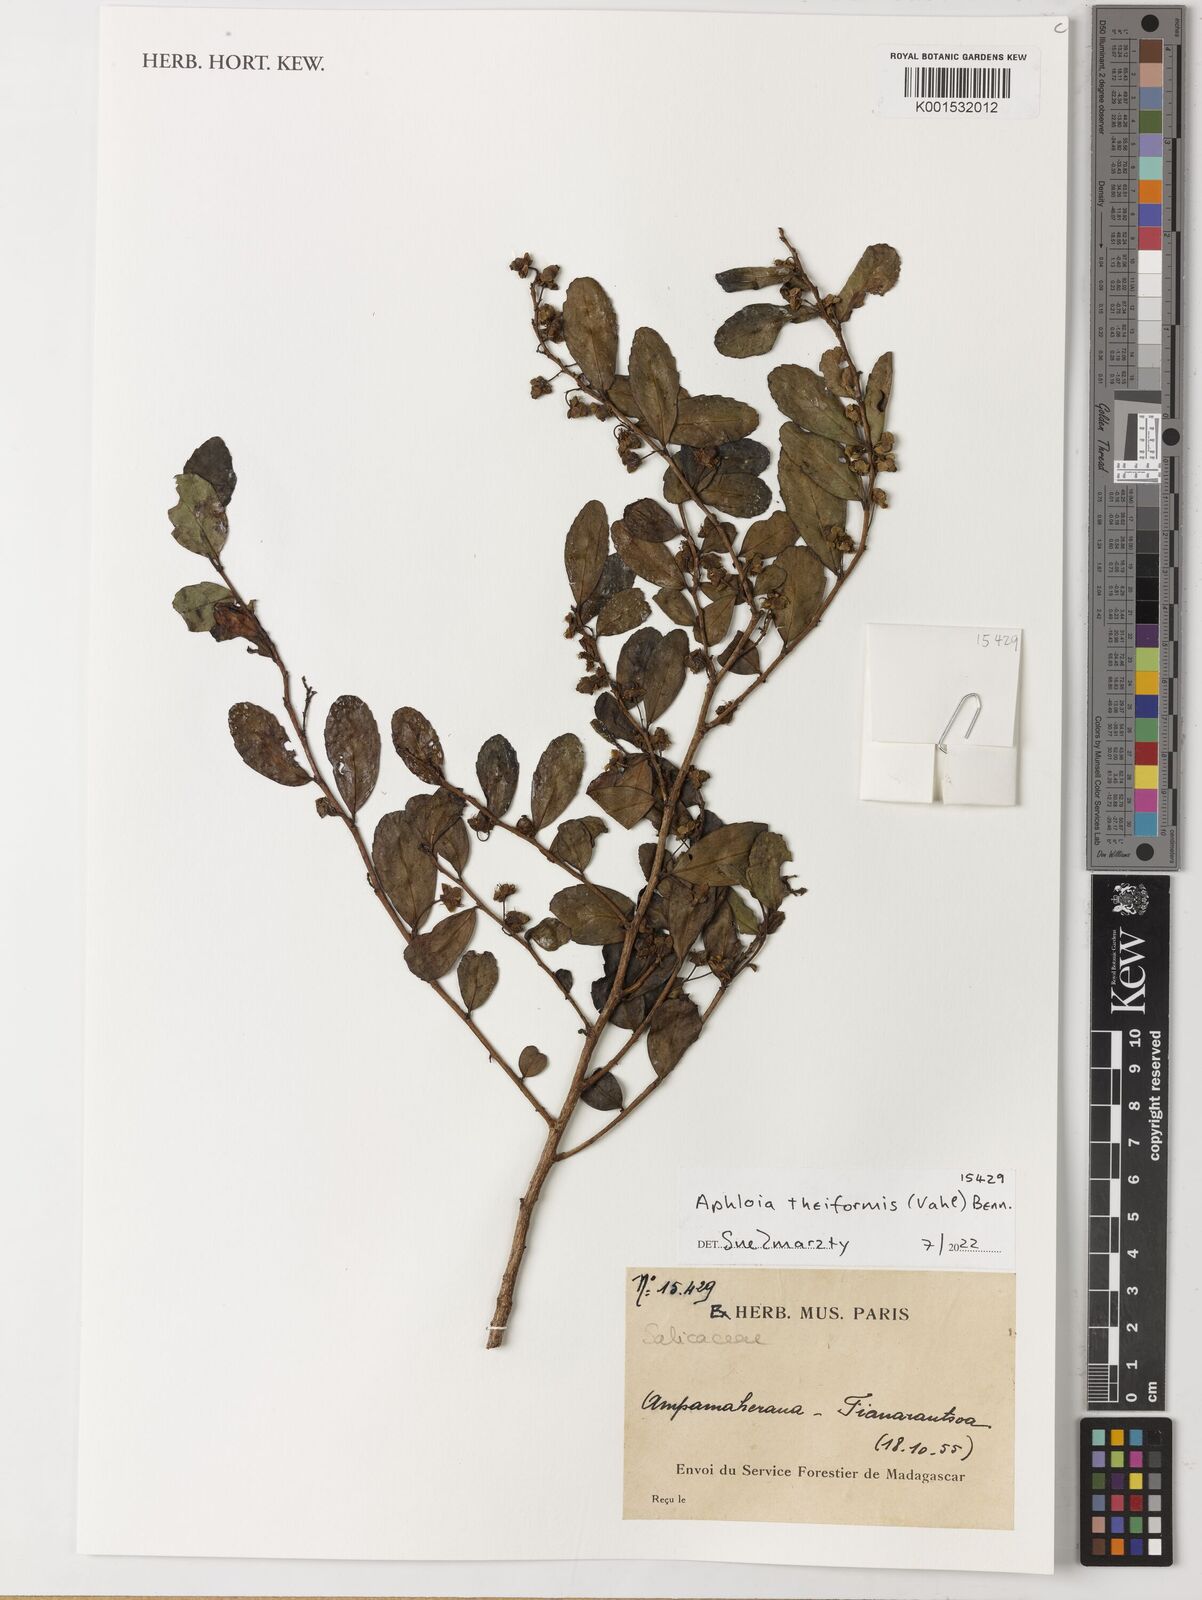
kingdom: Plantae
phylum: Tracheophyta
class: Magnoliopsida
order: Malpighiales
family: Salicaceae
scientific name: Salicaceae
